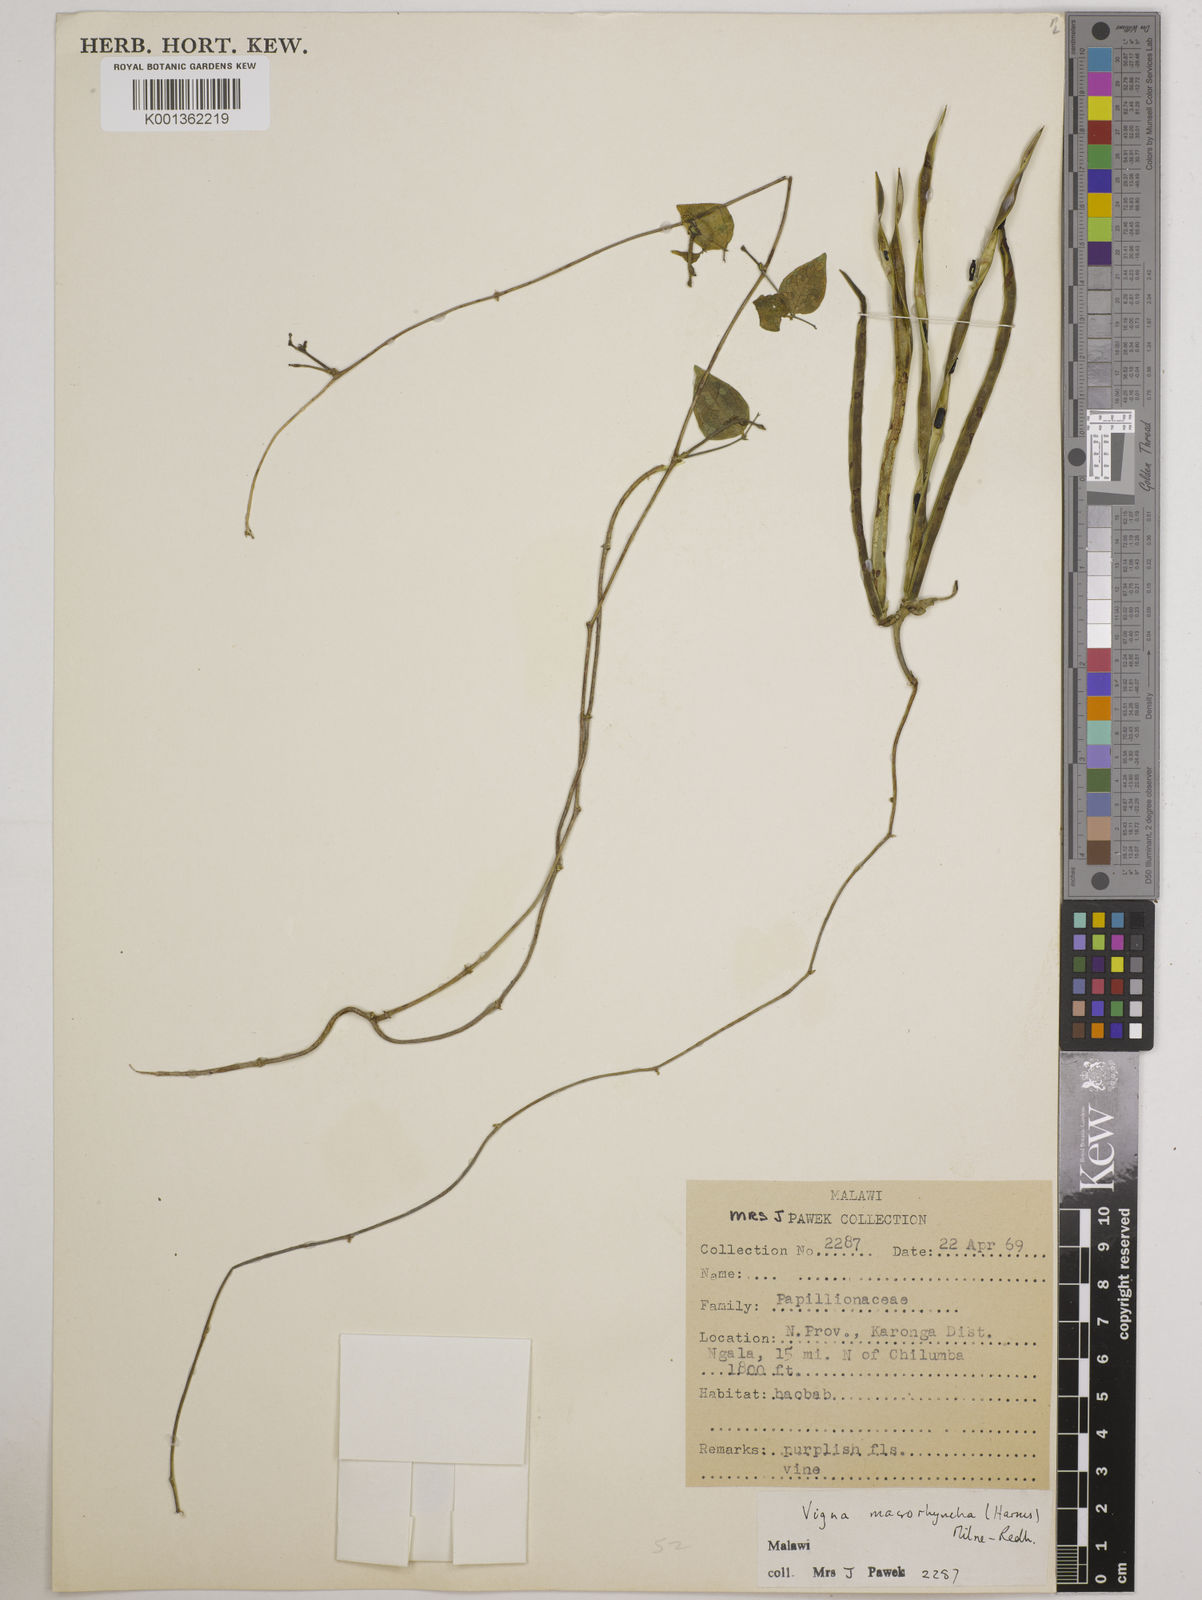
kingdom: Plantae
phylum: Tracheophyta
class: Magnoliopsida
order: Fabales
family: Fabaceae
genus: Wajira
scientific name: Wajira grahamiana
